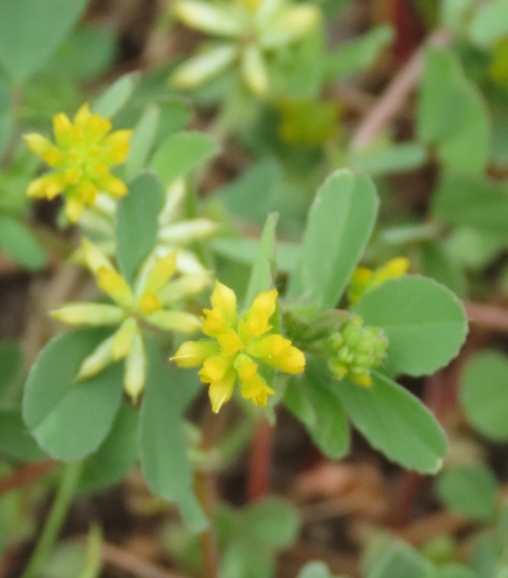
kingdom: Plantae
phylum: Tracheophyta
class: Magnoliopsida
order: Fabales
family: Fabaceae
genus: Trifolium
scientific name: Trifolium dubium
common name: Fin kløver
